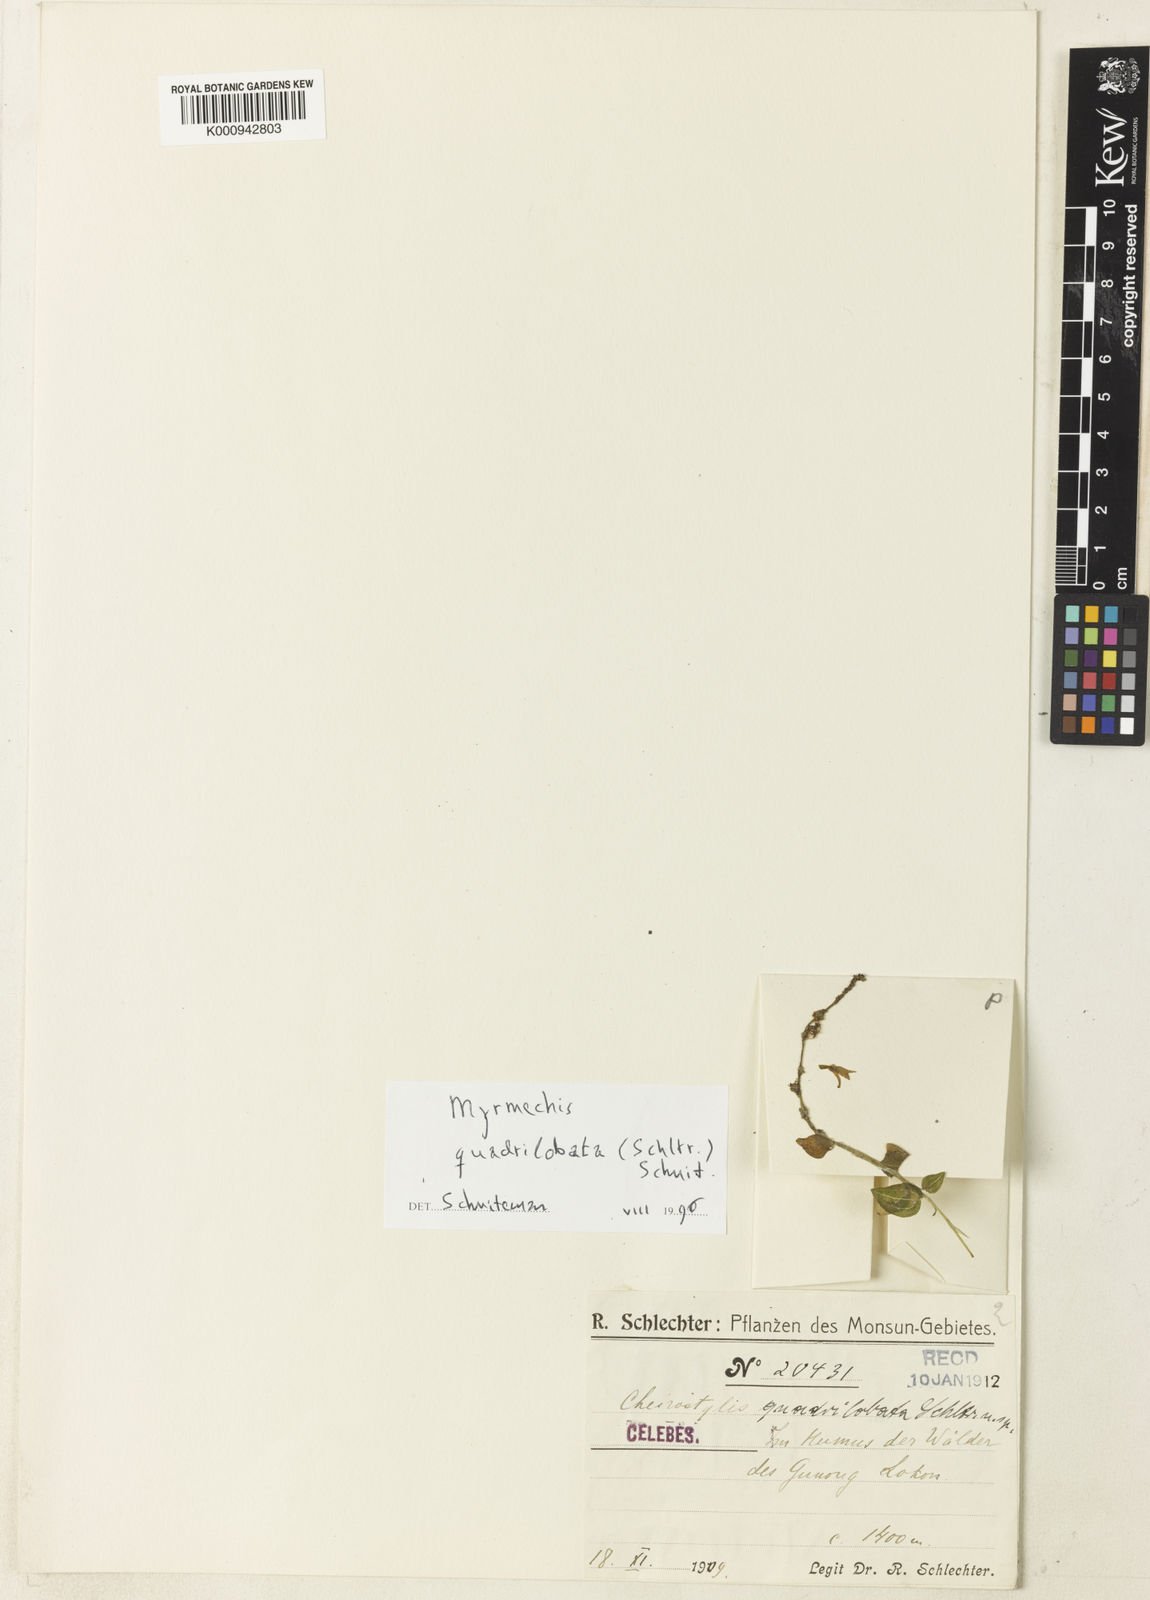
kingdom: Plantae
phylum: Tracheophyta
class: Liliopsida
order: Asparagales
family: Orchidaceae
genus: Odontochilus
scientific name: Odontochilus quadrilobatus
